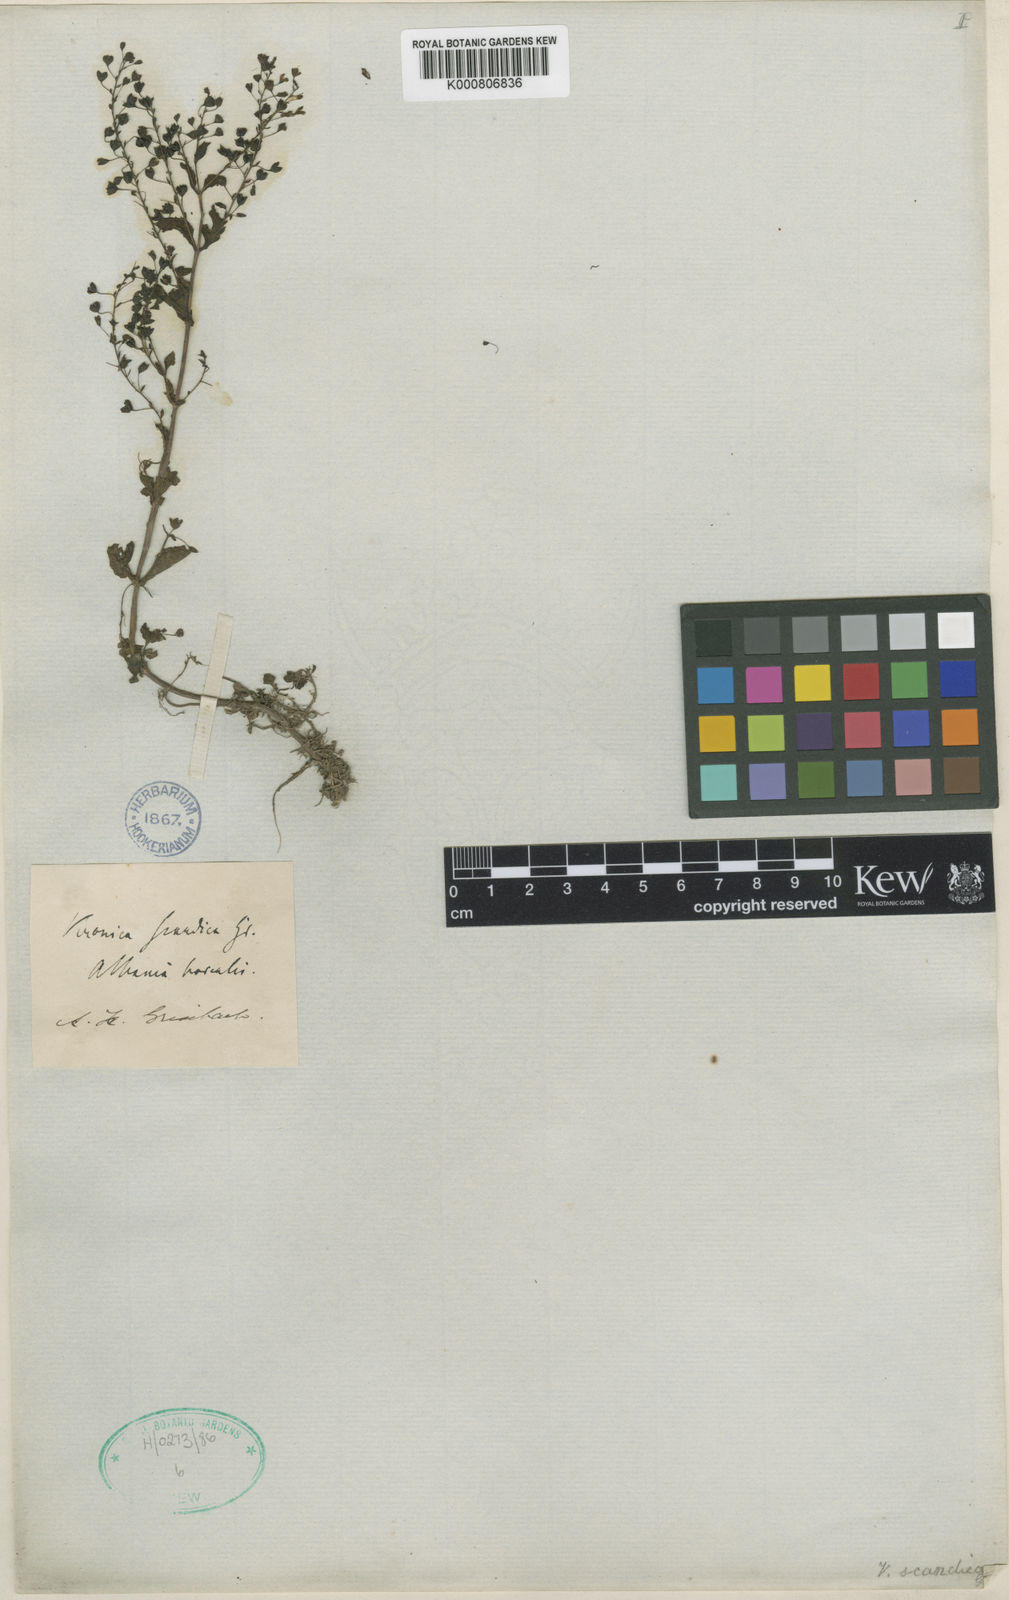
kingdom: Plantae
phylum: Tracheophyta
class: Magnoliopsida
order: Lamiales
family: Plantaginaceae
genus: Veronica
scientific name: Veronica scardica
